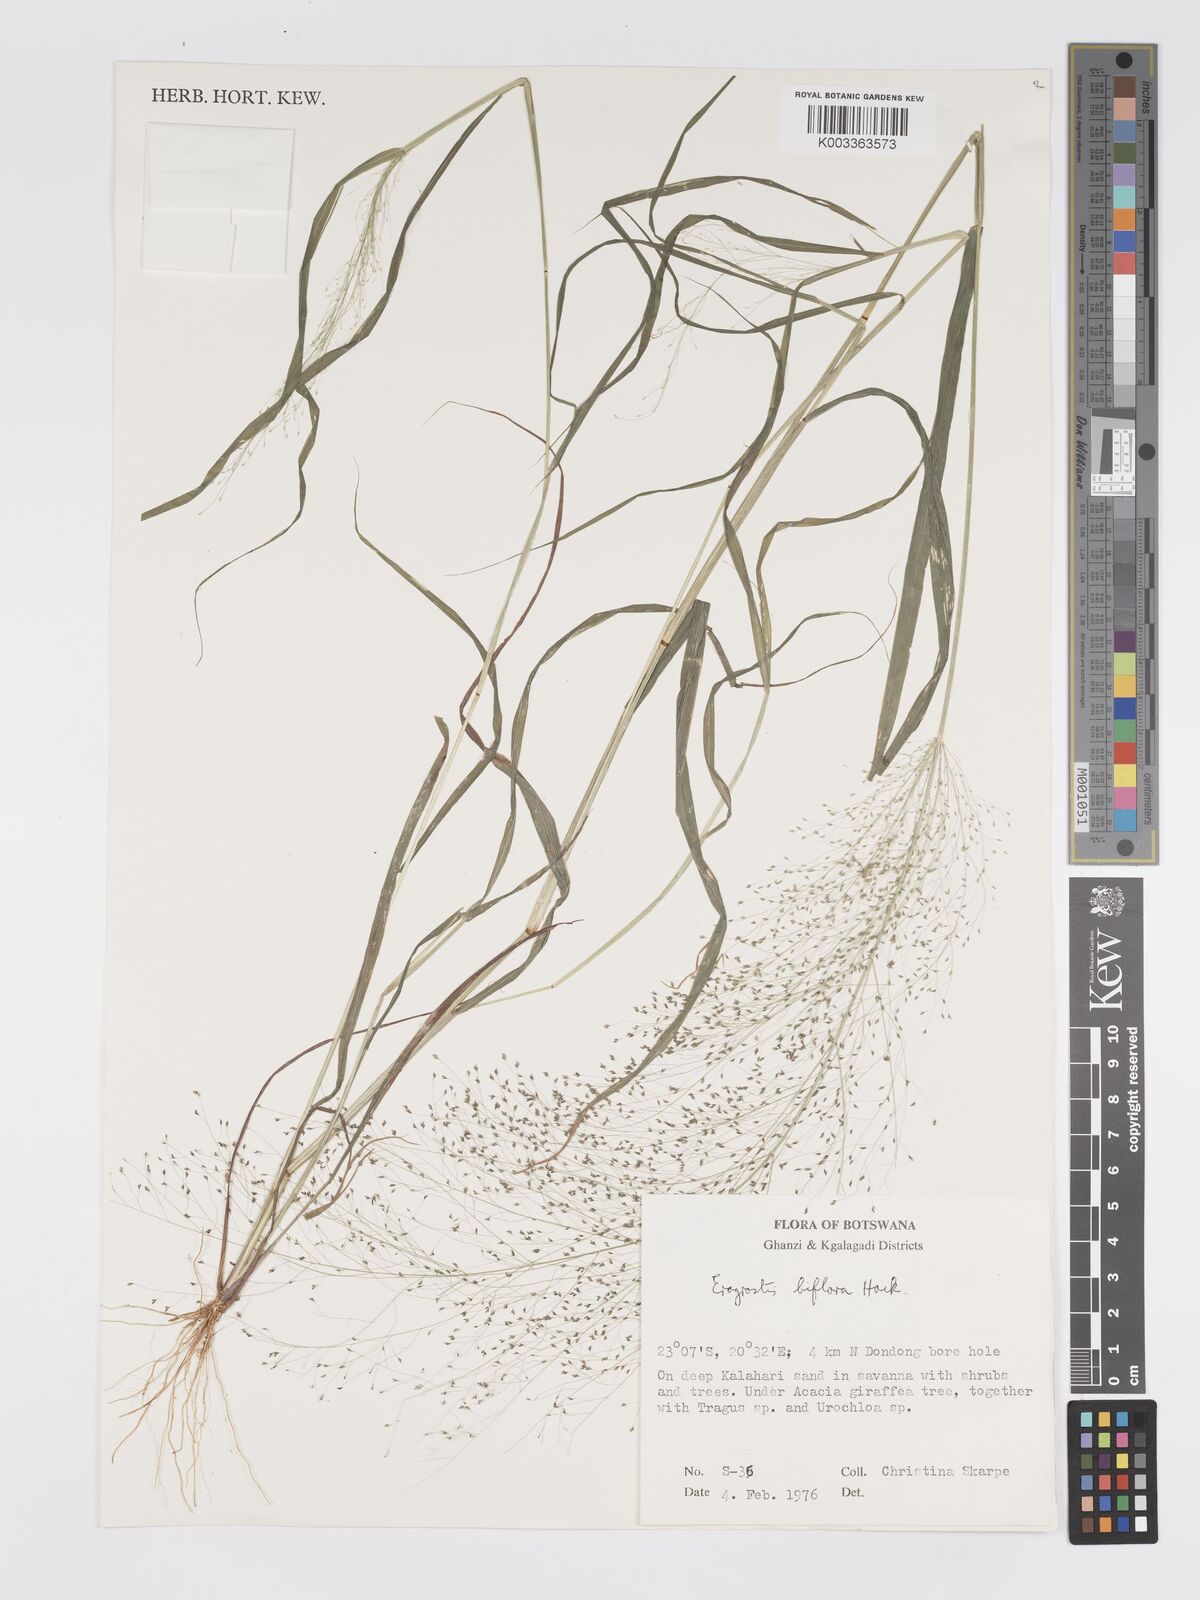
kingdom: Plantae
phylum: Tracheophyta
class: Liliopsida
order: Poales
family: Poaceae
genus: Eragrostis
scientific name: Eragrostis biflora
